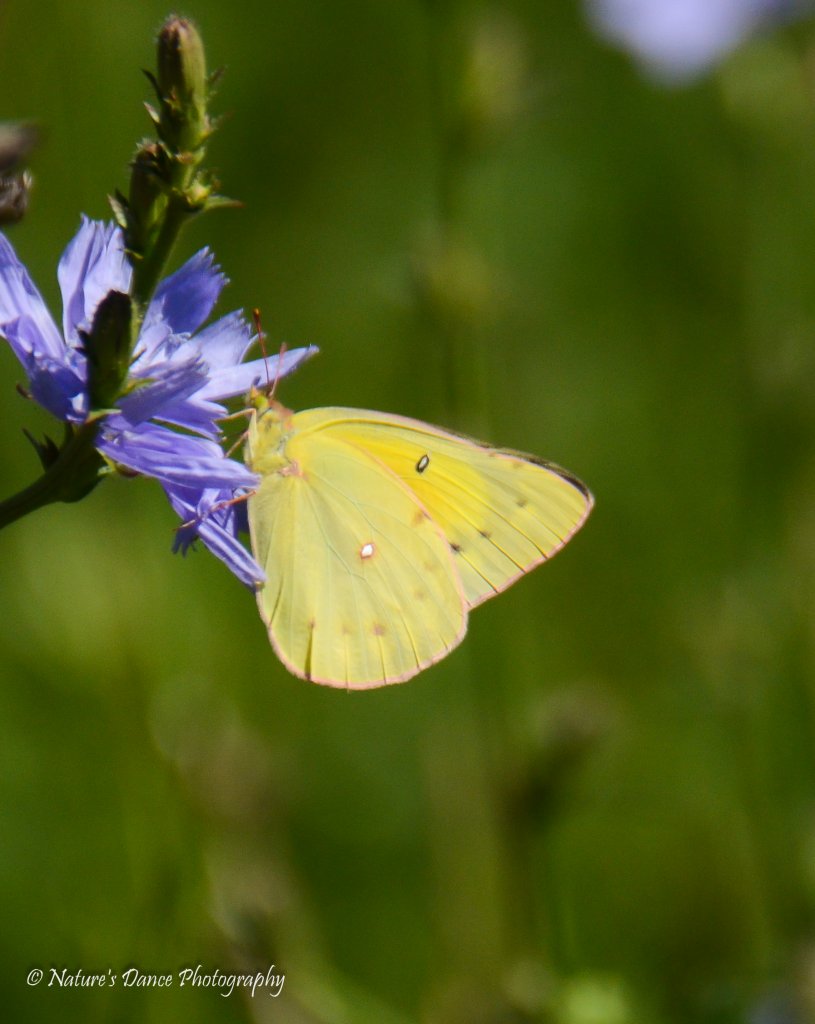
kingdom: Animalia
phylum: Arthropoda
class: Insecta
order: Lepidoptera
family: Pieridae
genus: Colias
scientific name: Colias eurytheme
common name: Orange Sulphur
